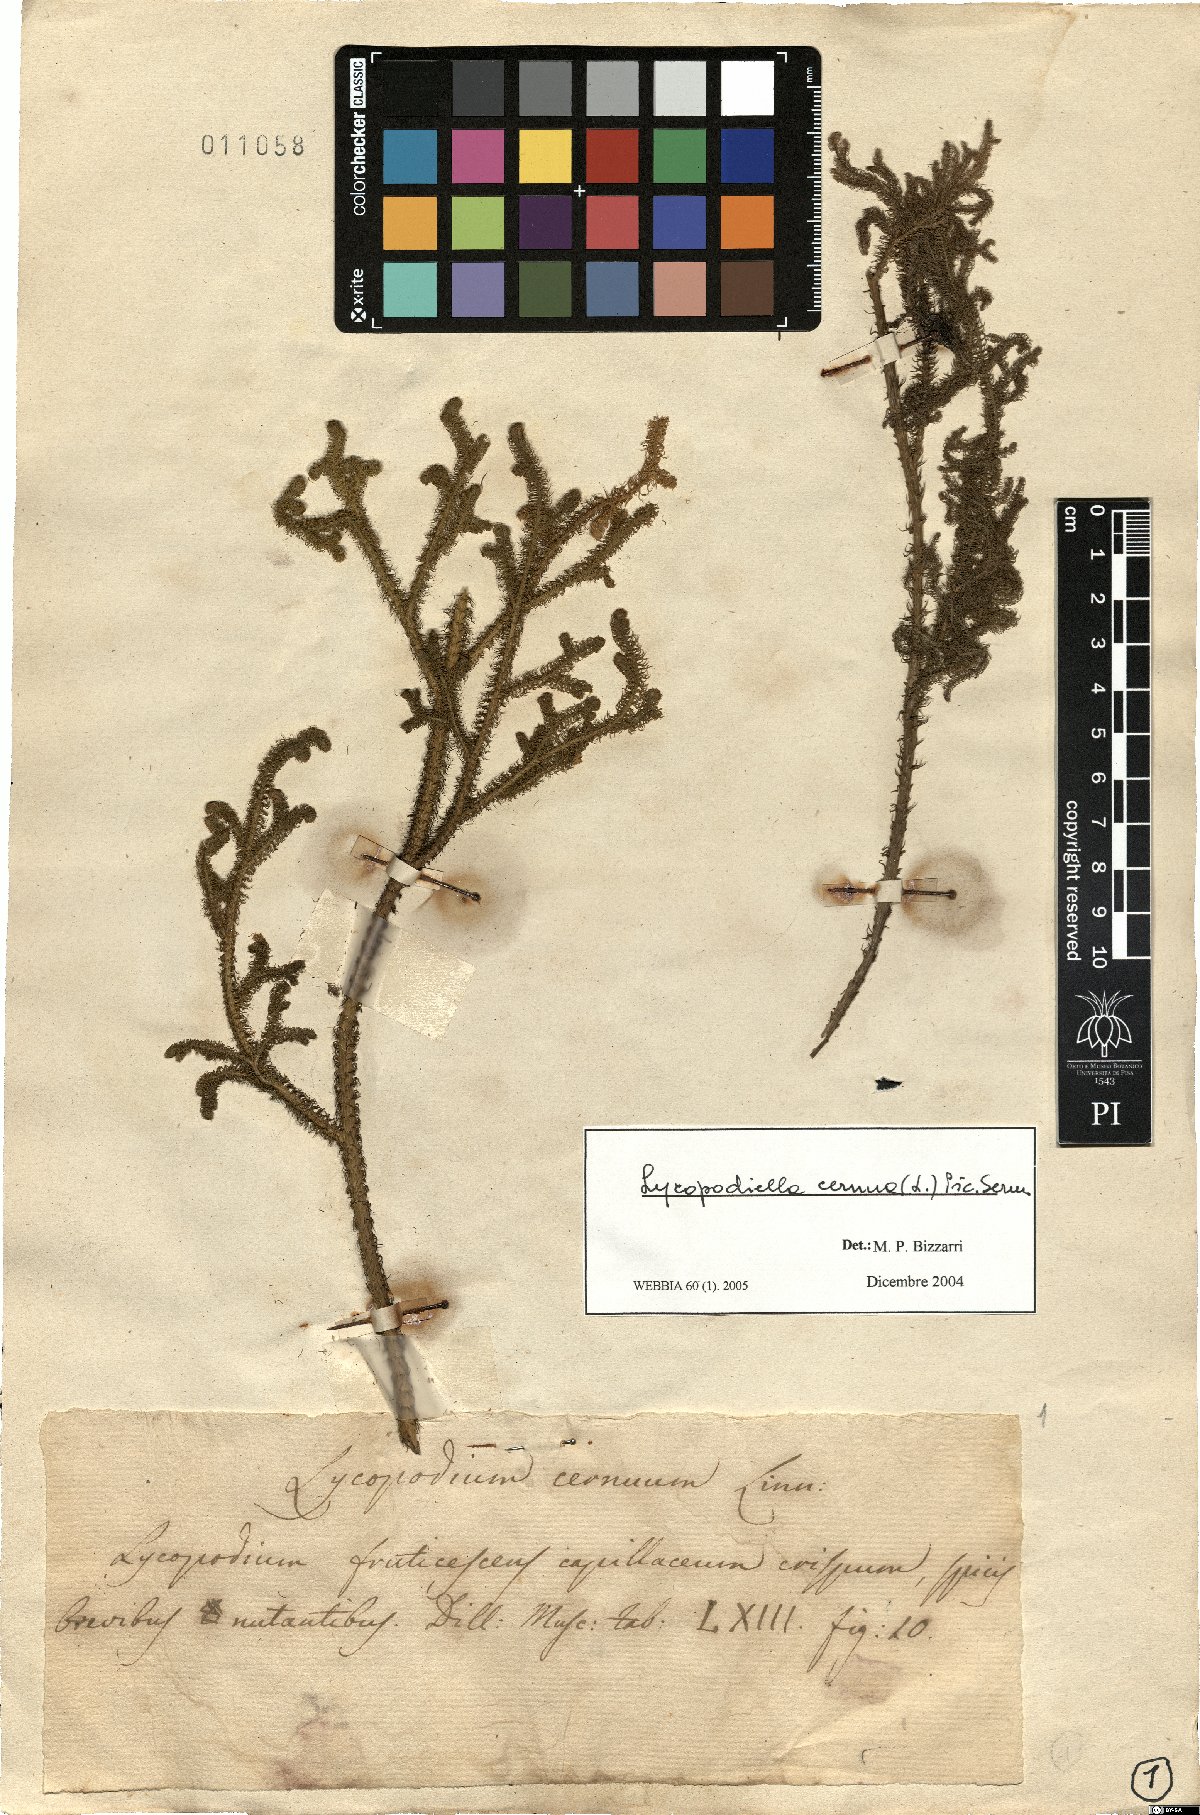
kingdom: Plantae
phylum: Tracheophyta
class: Lycopodiopsida
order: Lycopodiales
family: Lycopodiaceae
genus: Palhinhaea
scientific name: Palhinhaea cernua
